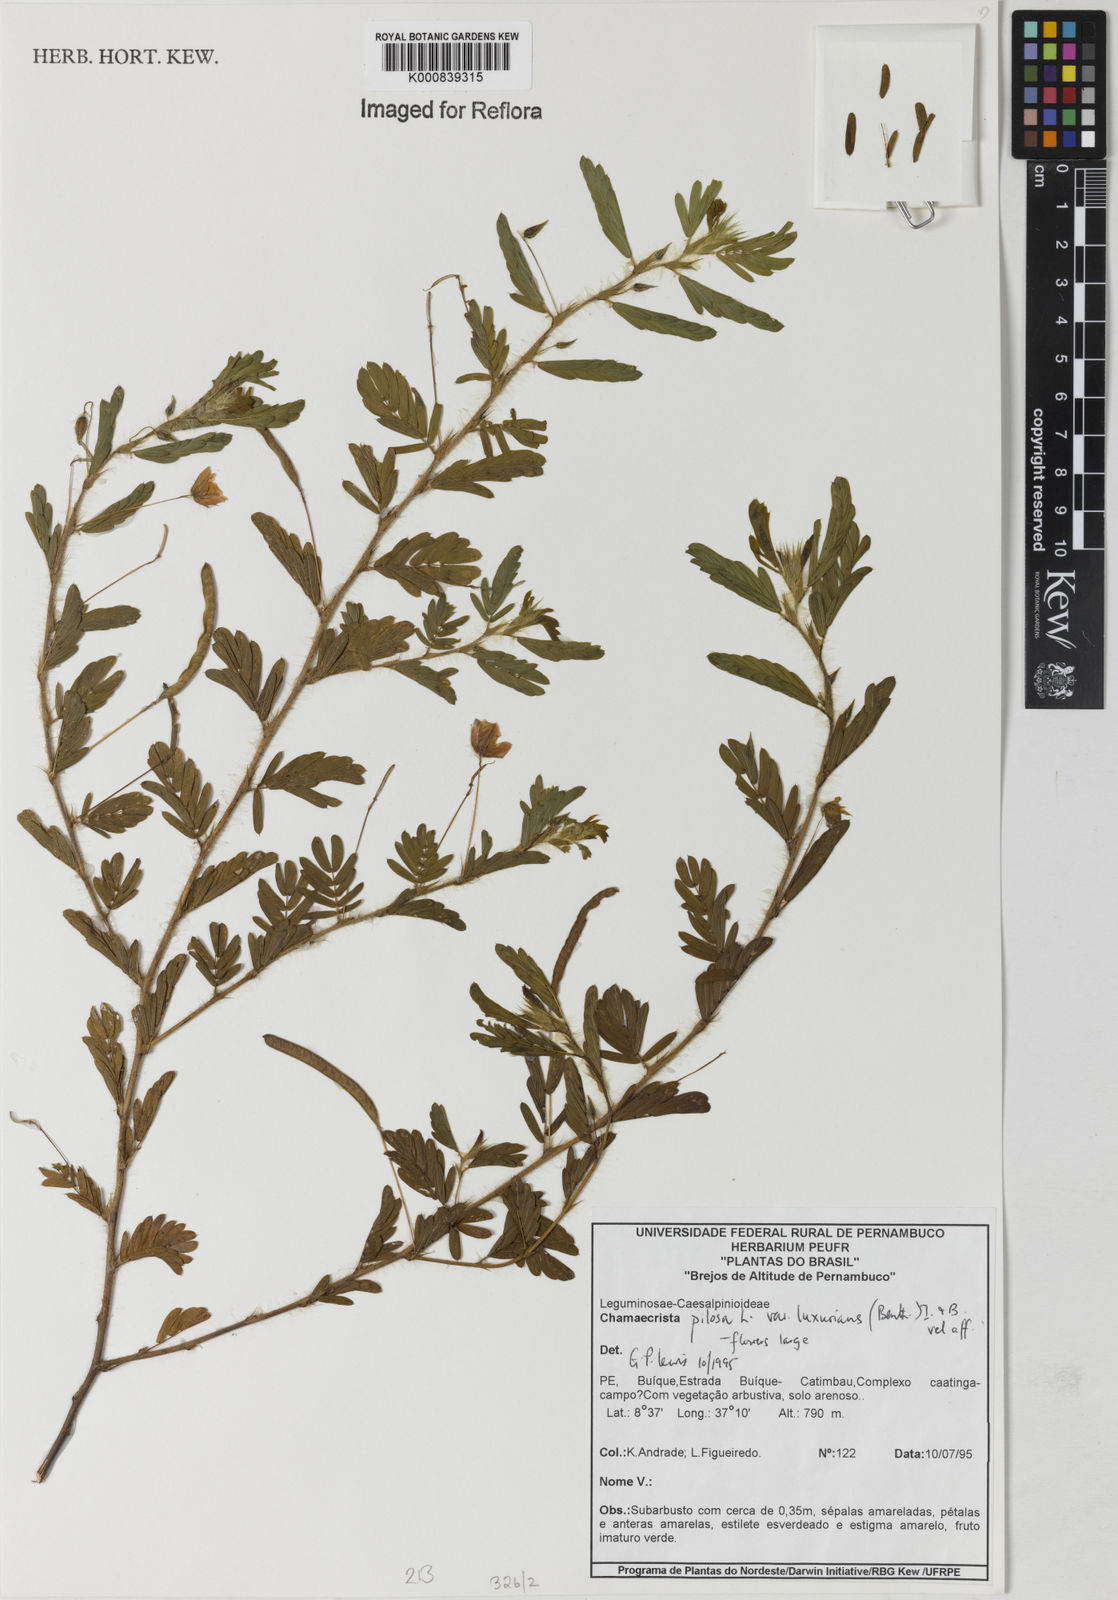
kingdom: Plantae
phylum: Tracheophyta
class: Magnoliopsida
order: Fabales
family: Fabaceae
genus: Chamaecrista
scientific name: Chamaecrista pilosa
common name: Hairy sensitive pea
